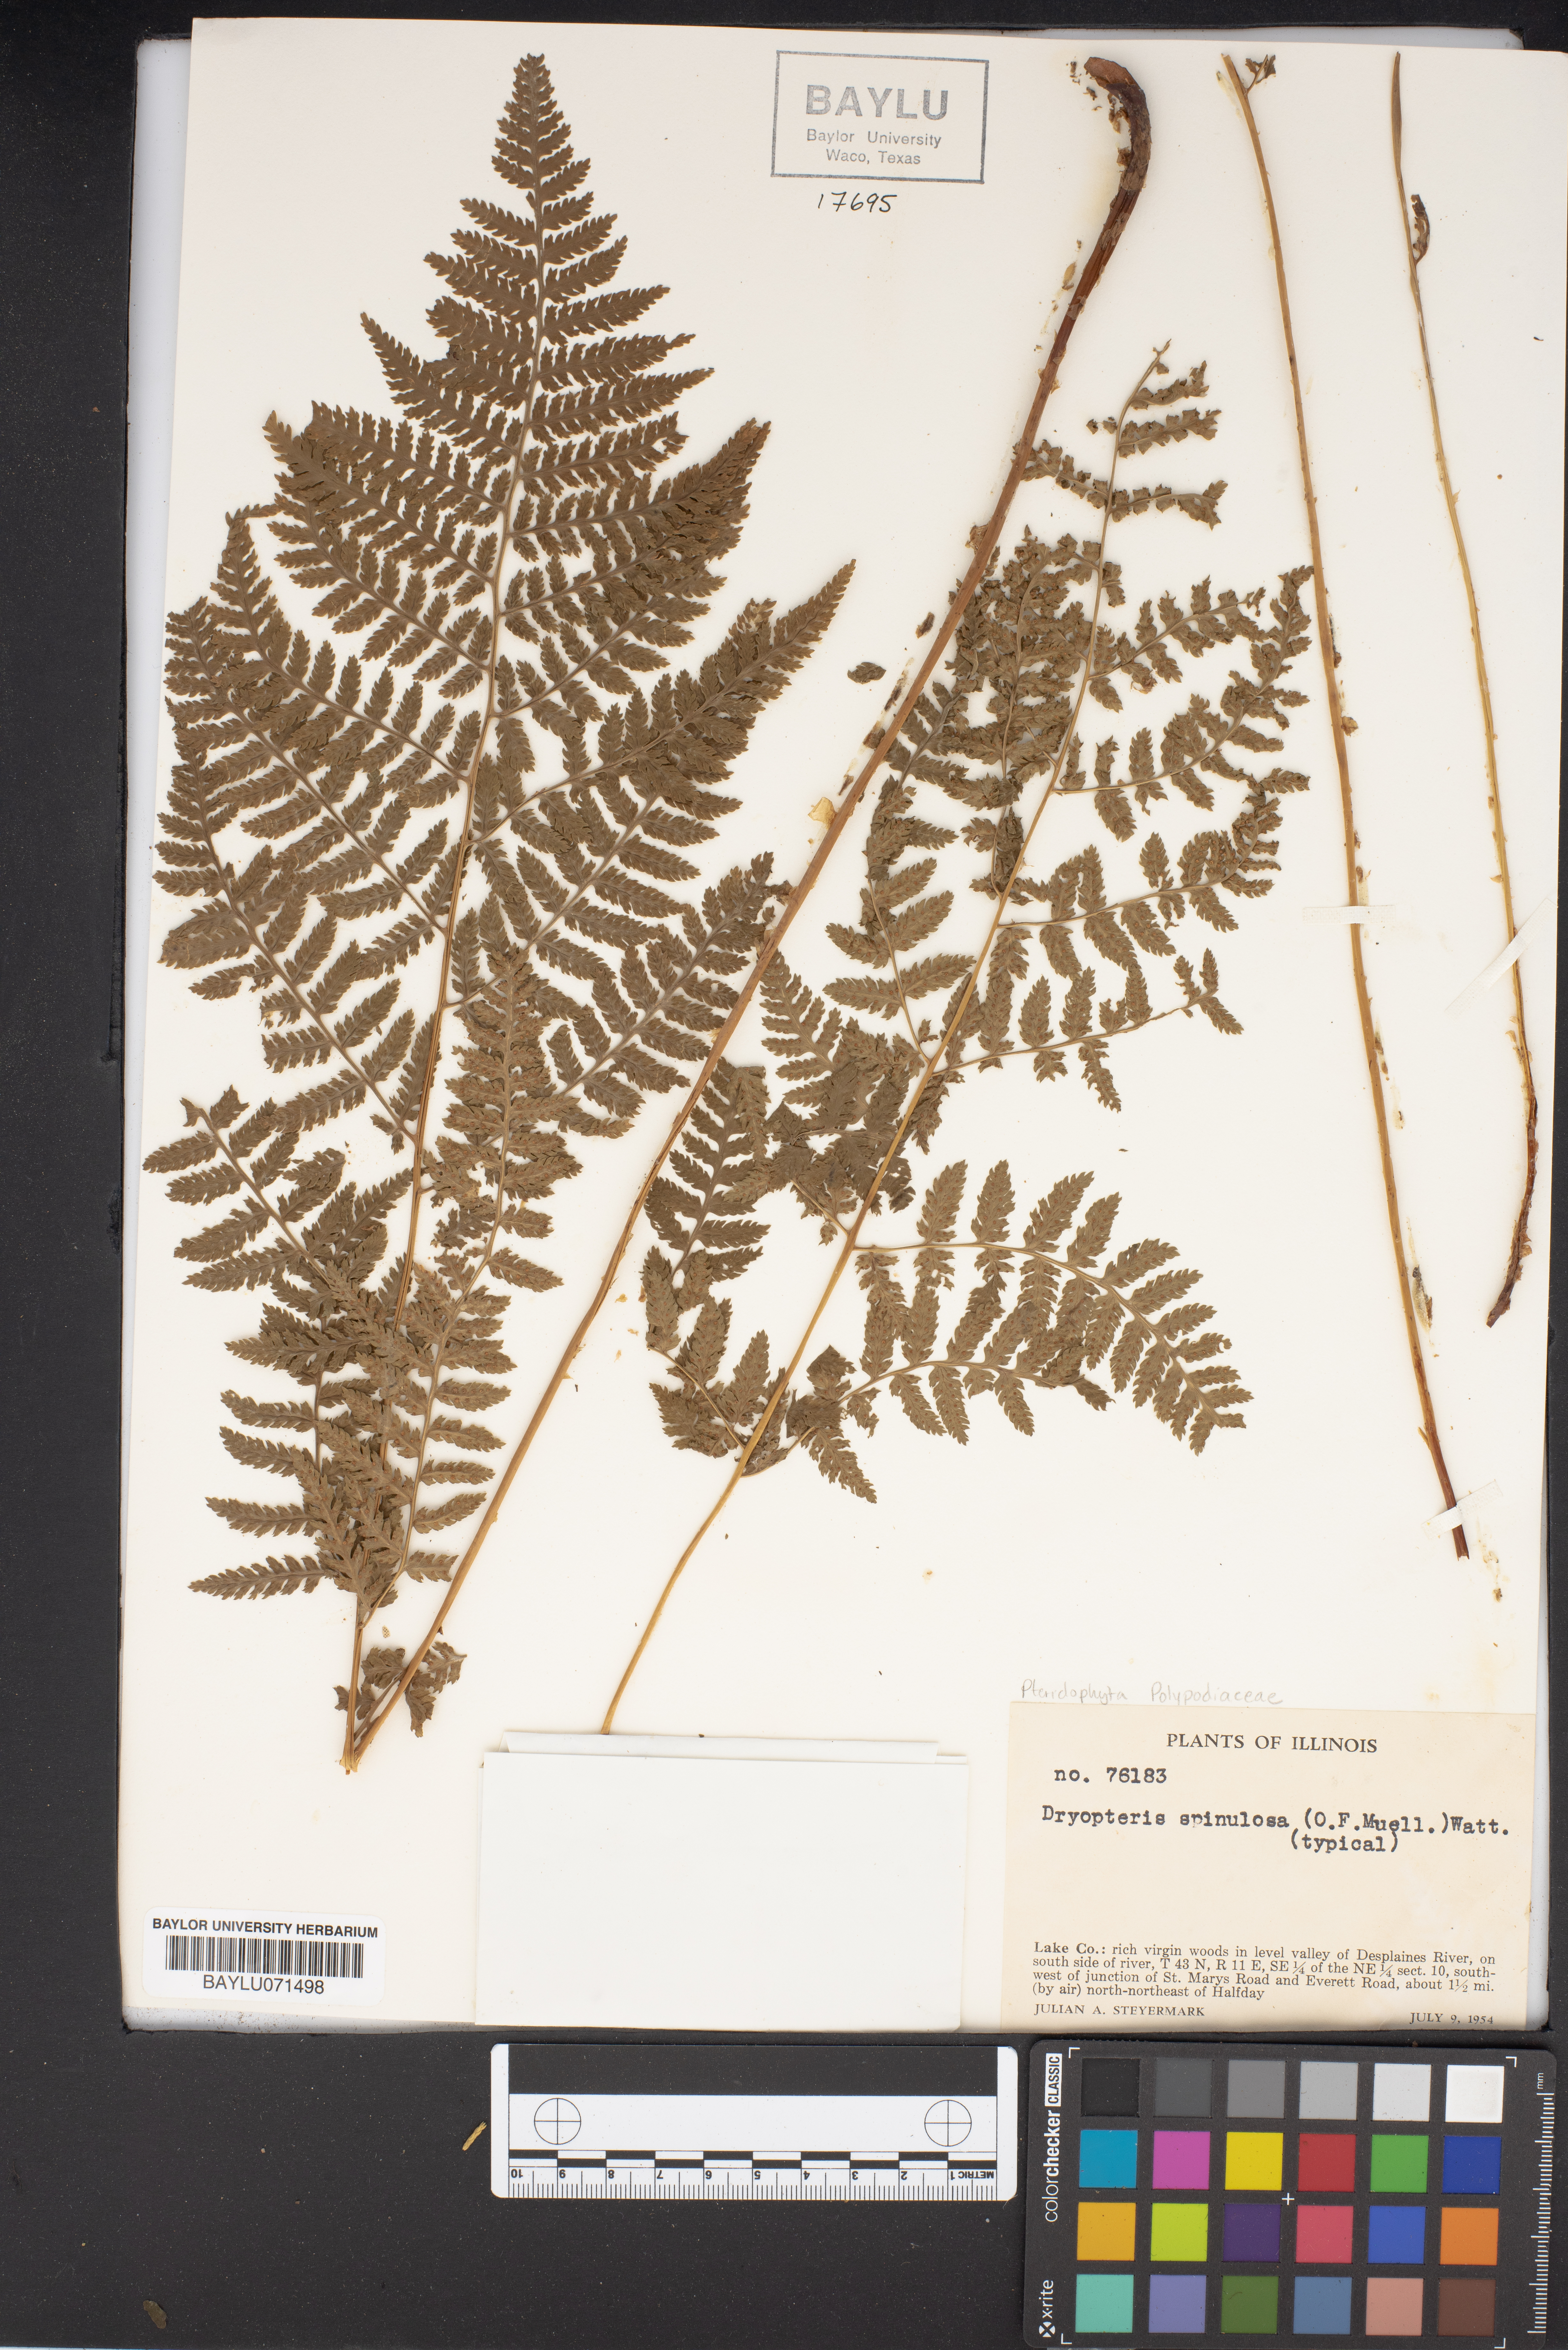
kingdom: Plantae
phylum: Tracheophyta
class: Polypodiopsida
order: Polypodiales
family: Dryopteridaceae
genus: Dryopteris
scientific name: Dryopteris carthusiana
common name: Narrow buckler-fern
